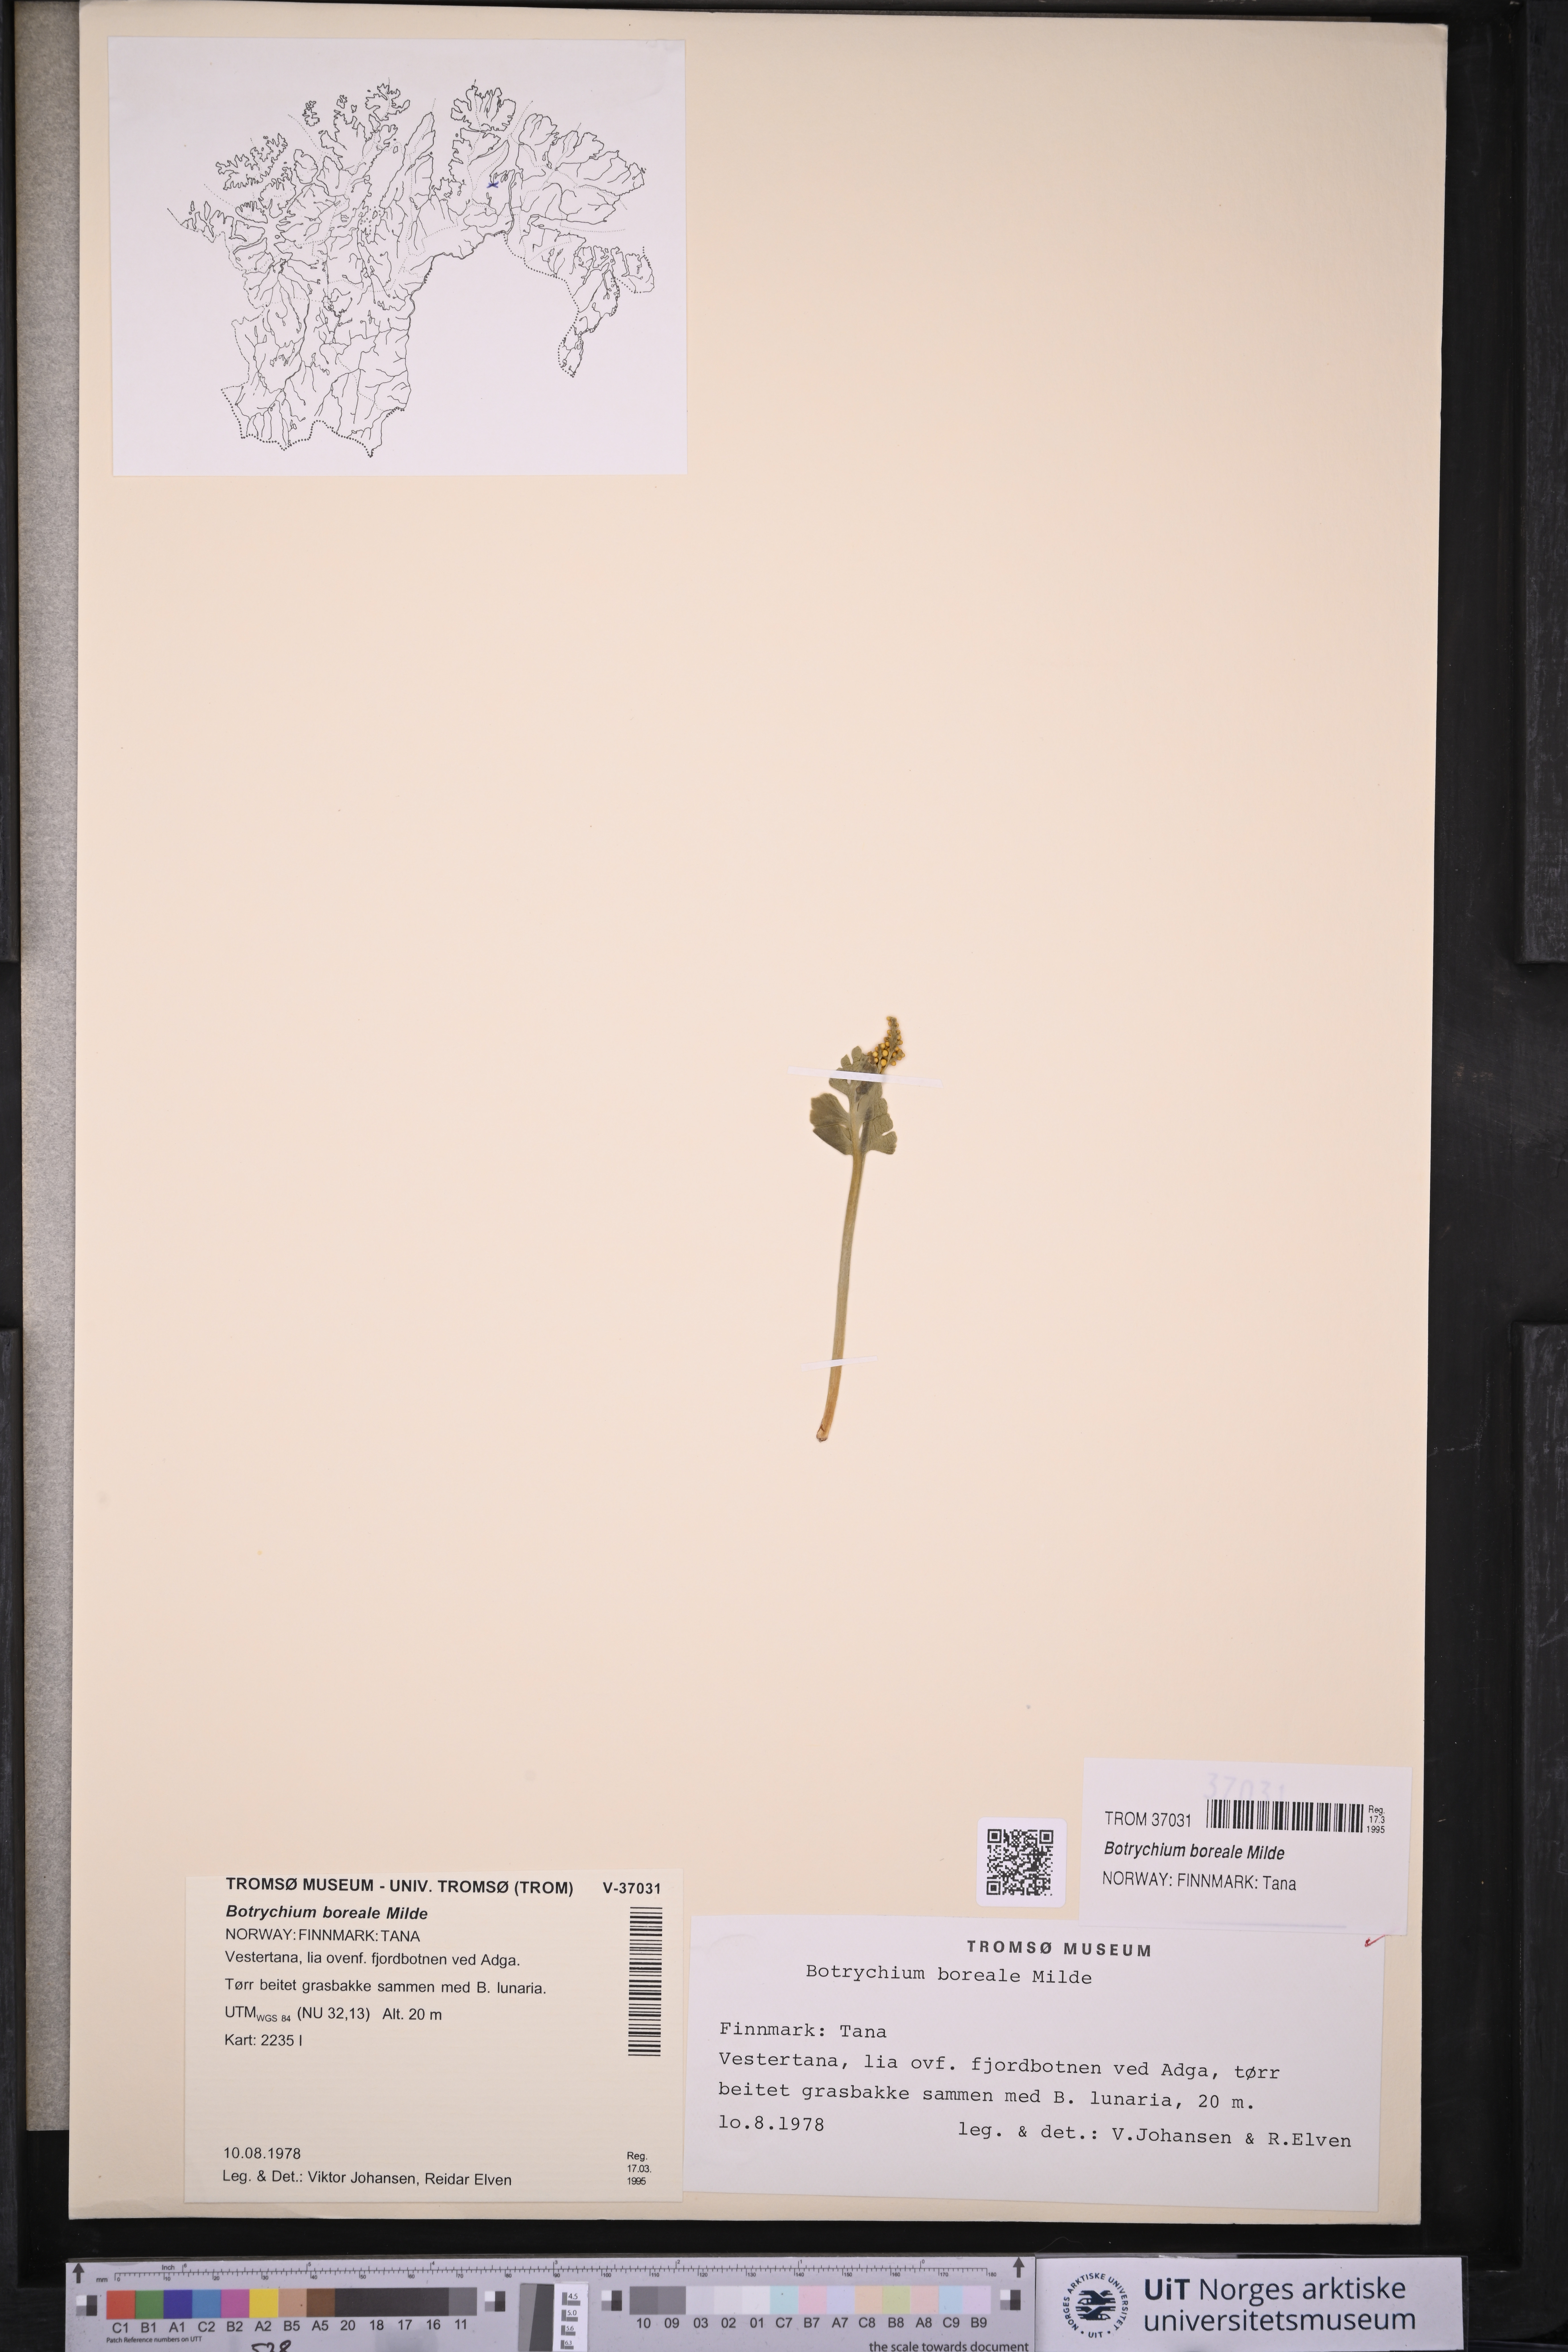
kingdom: Plantae
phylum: Tracheophyta
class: Polypodiopsida
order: Ophioglossales
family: Ophioglossaceae
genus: Botrychium
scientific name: Botrychium boreale
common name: Boreal moonwort
